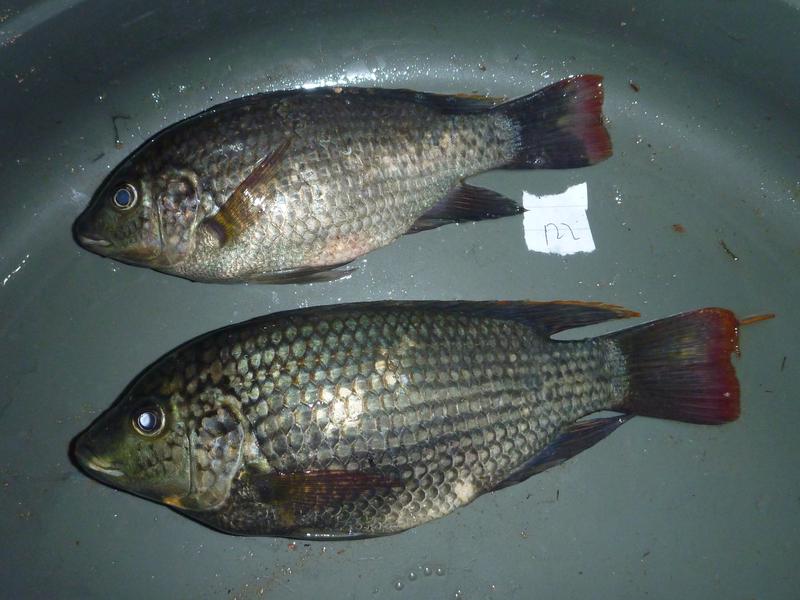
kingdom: Animalia
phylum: Chordata
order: Perciformes
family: Cichlidae
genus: Oreochromis
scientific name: Oreochromis shiranus
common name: Chilwa tilapia
